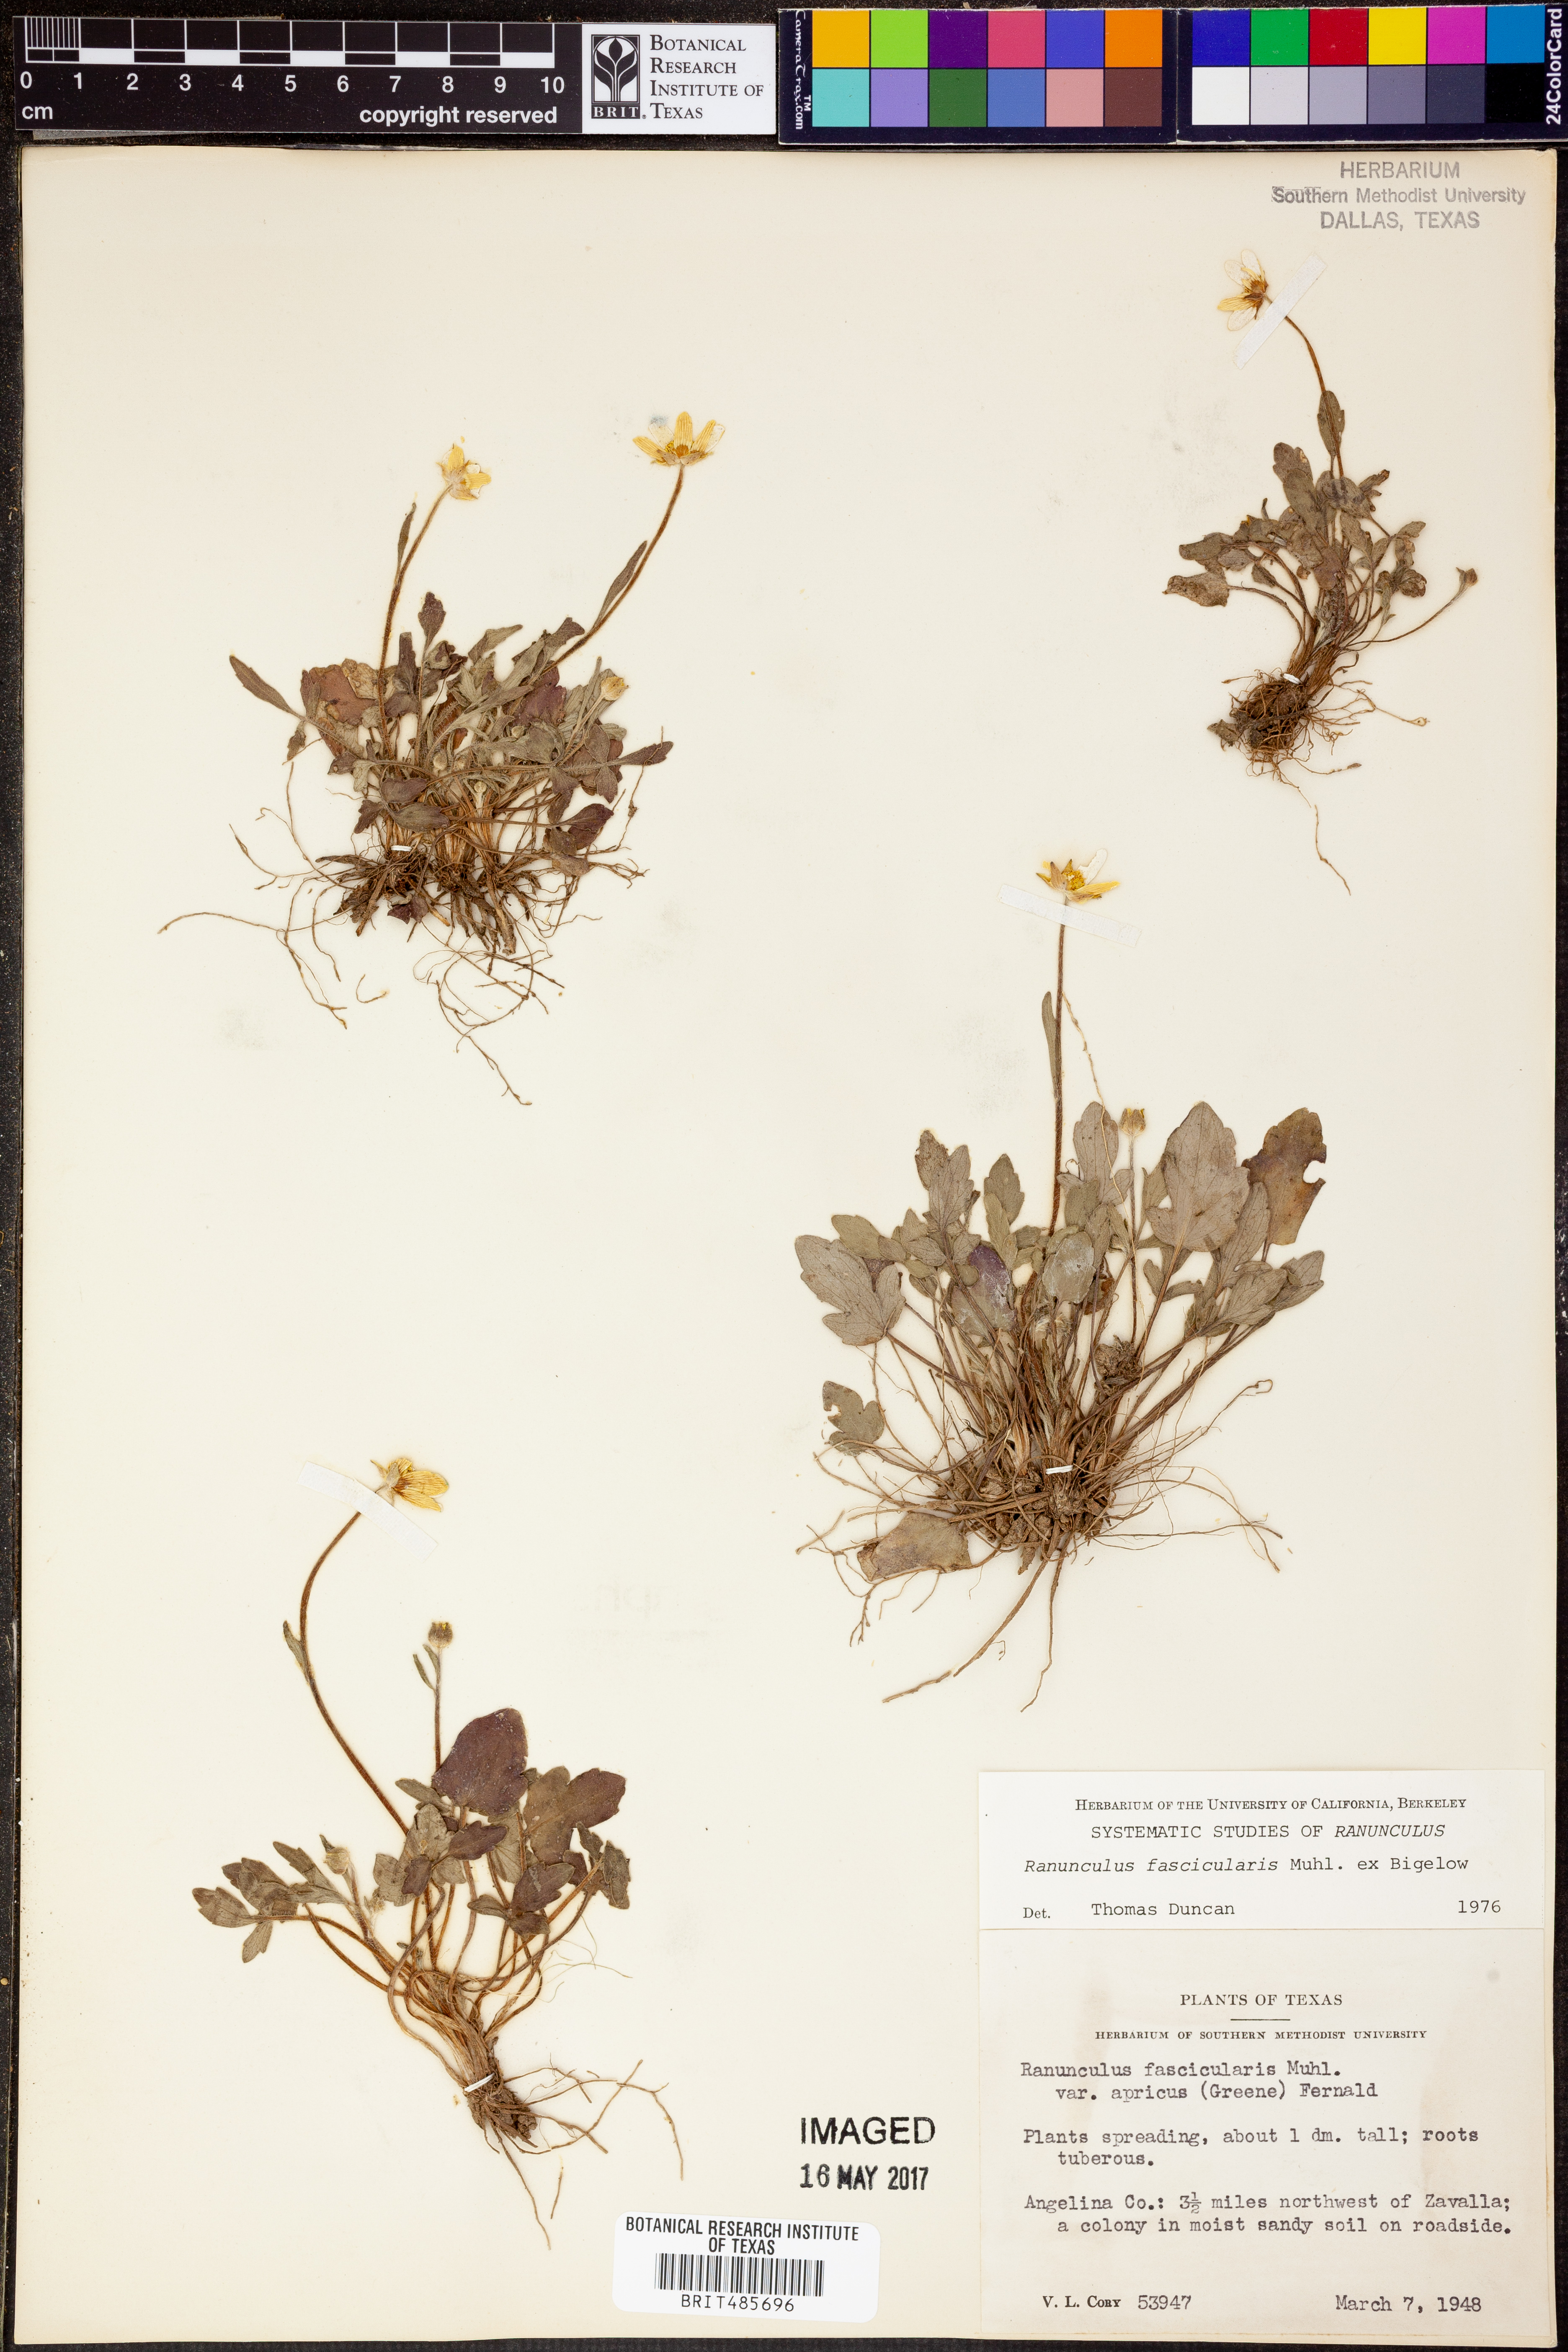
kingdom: Plantae
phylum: Tracheophyta
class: Magnoliopsida
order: Ranunculales
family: Ranunculaceae
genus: Ranunculus
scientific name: Ranunculus fascicularis
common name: Early buttercup
